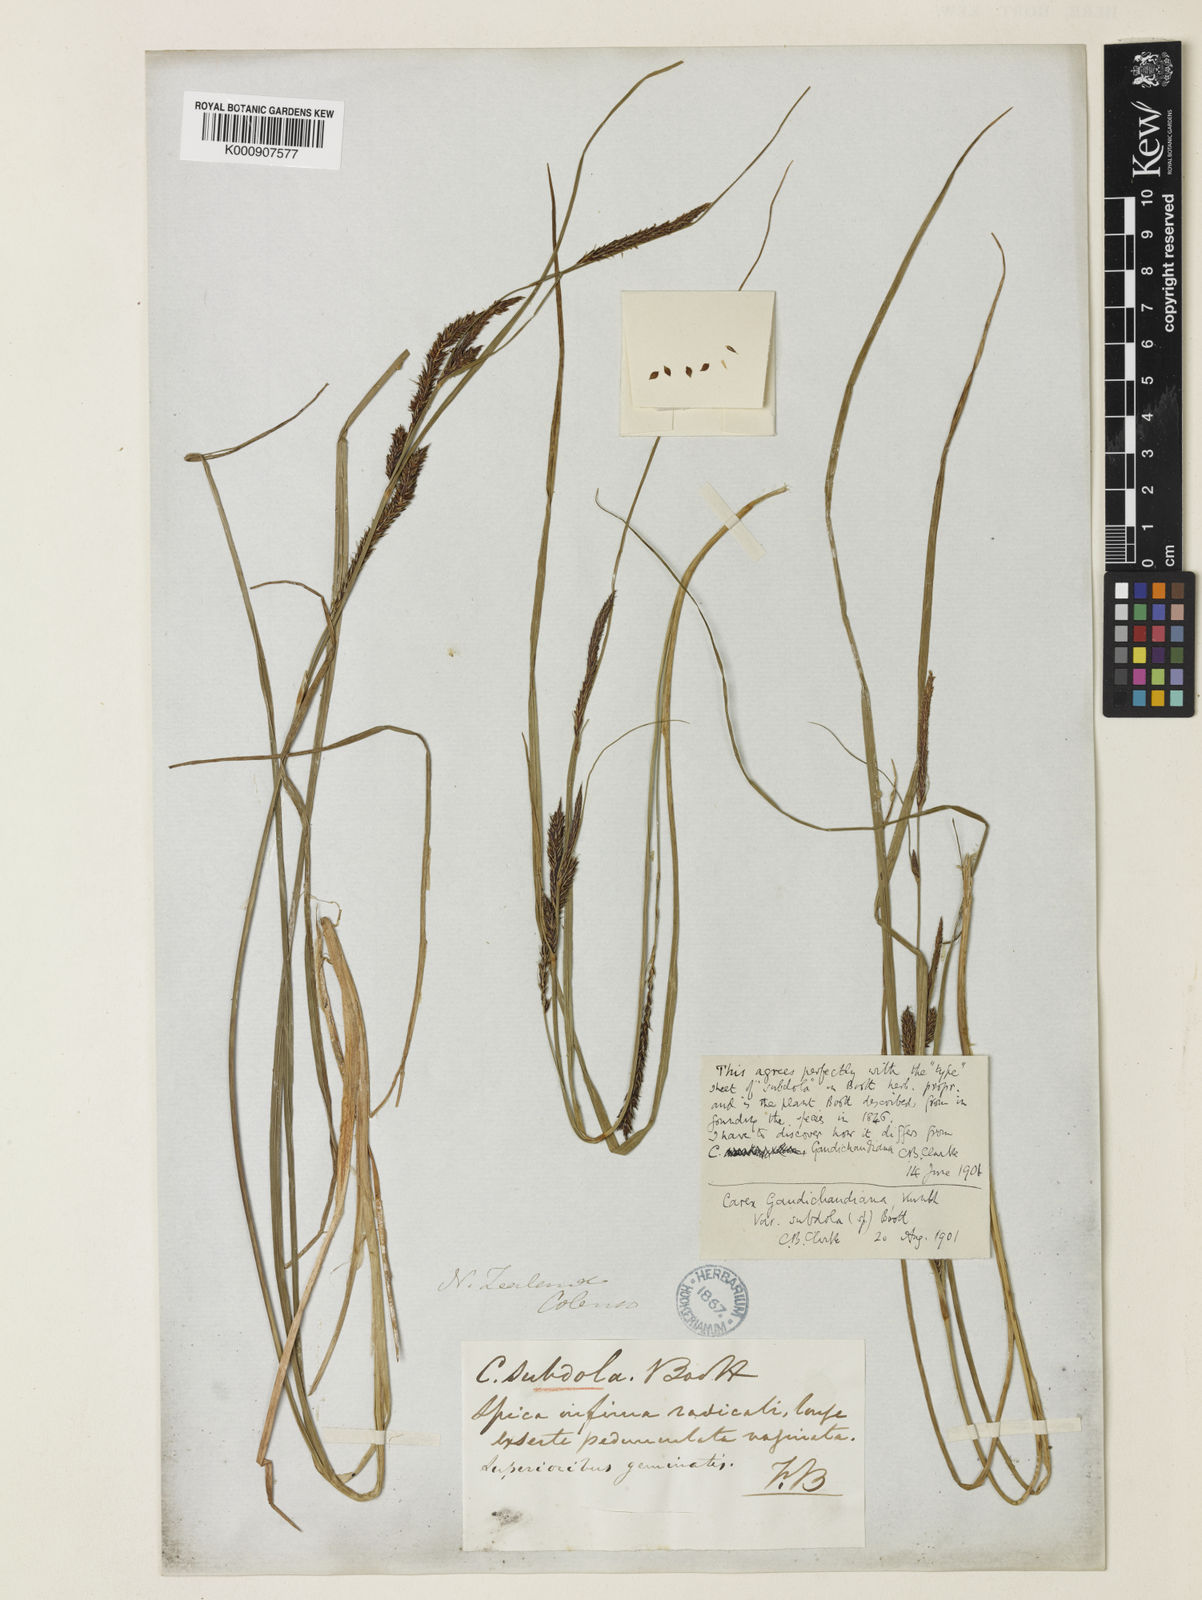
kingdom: Plantae
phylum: Tracheophyta
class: Liliopsida
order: Poales
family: Cyperaceae
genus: Carex
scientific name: Carex subdola
